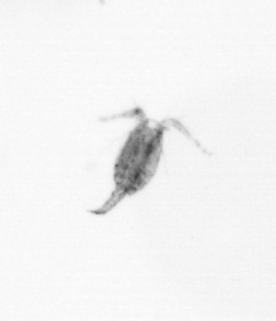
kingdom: Animalia
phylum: Arthropoda
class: Copepoda
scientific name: Copepoda
